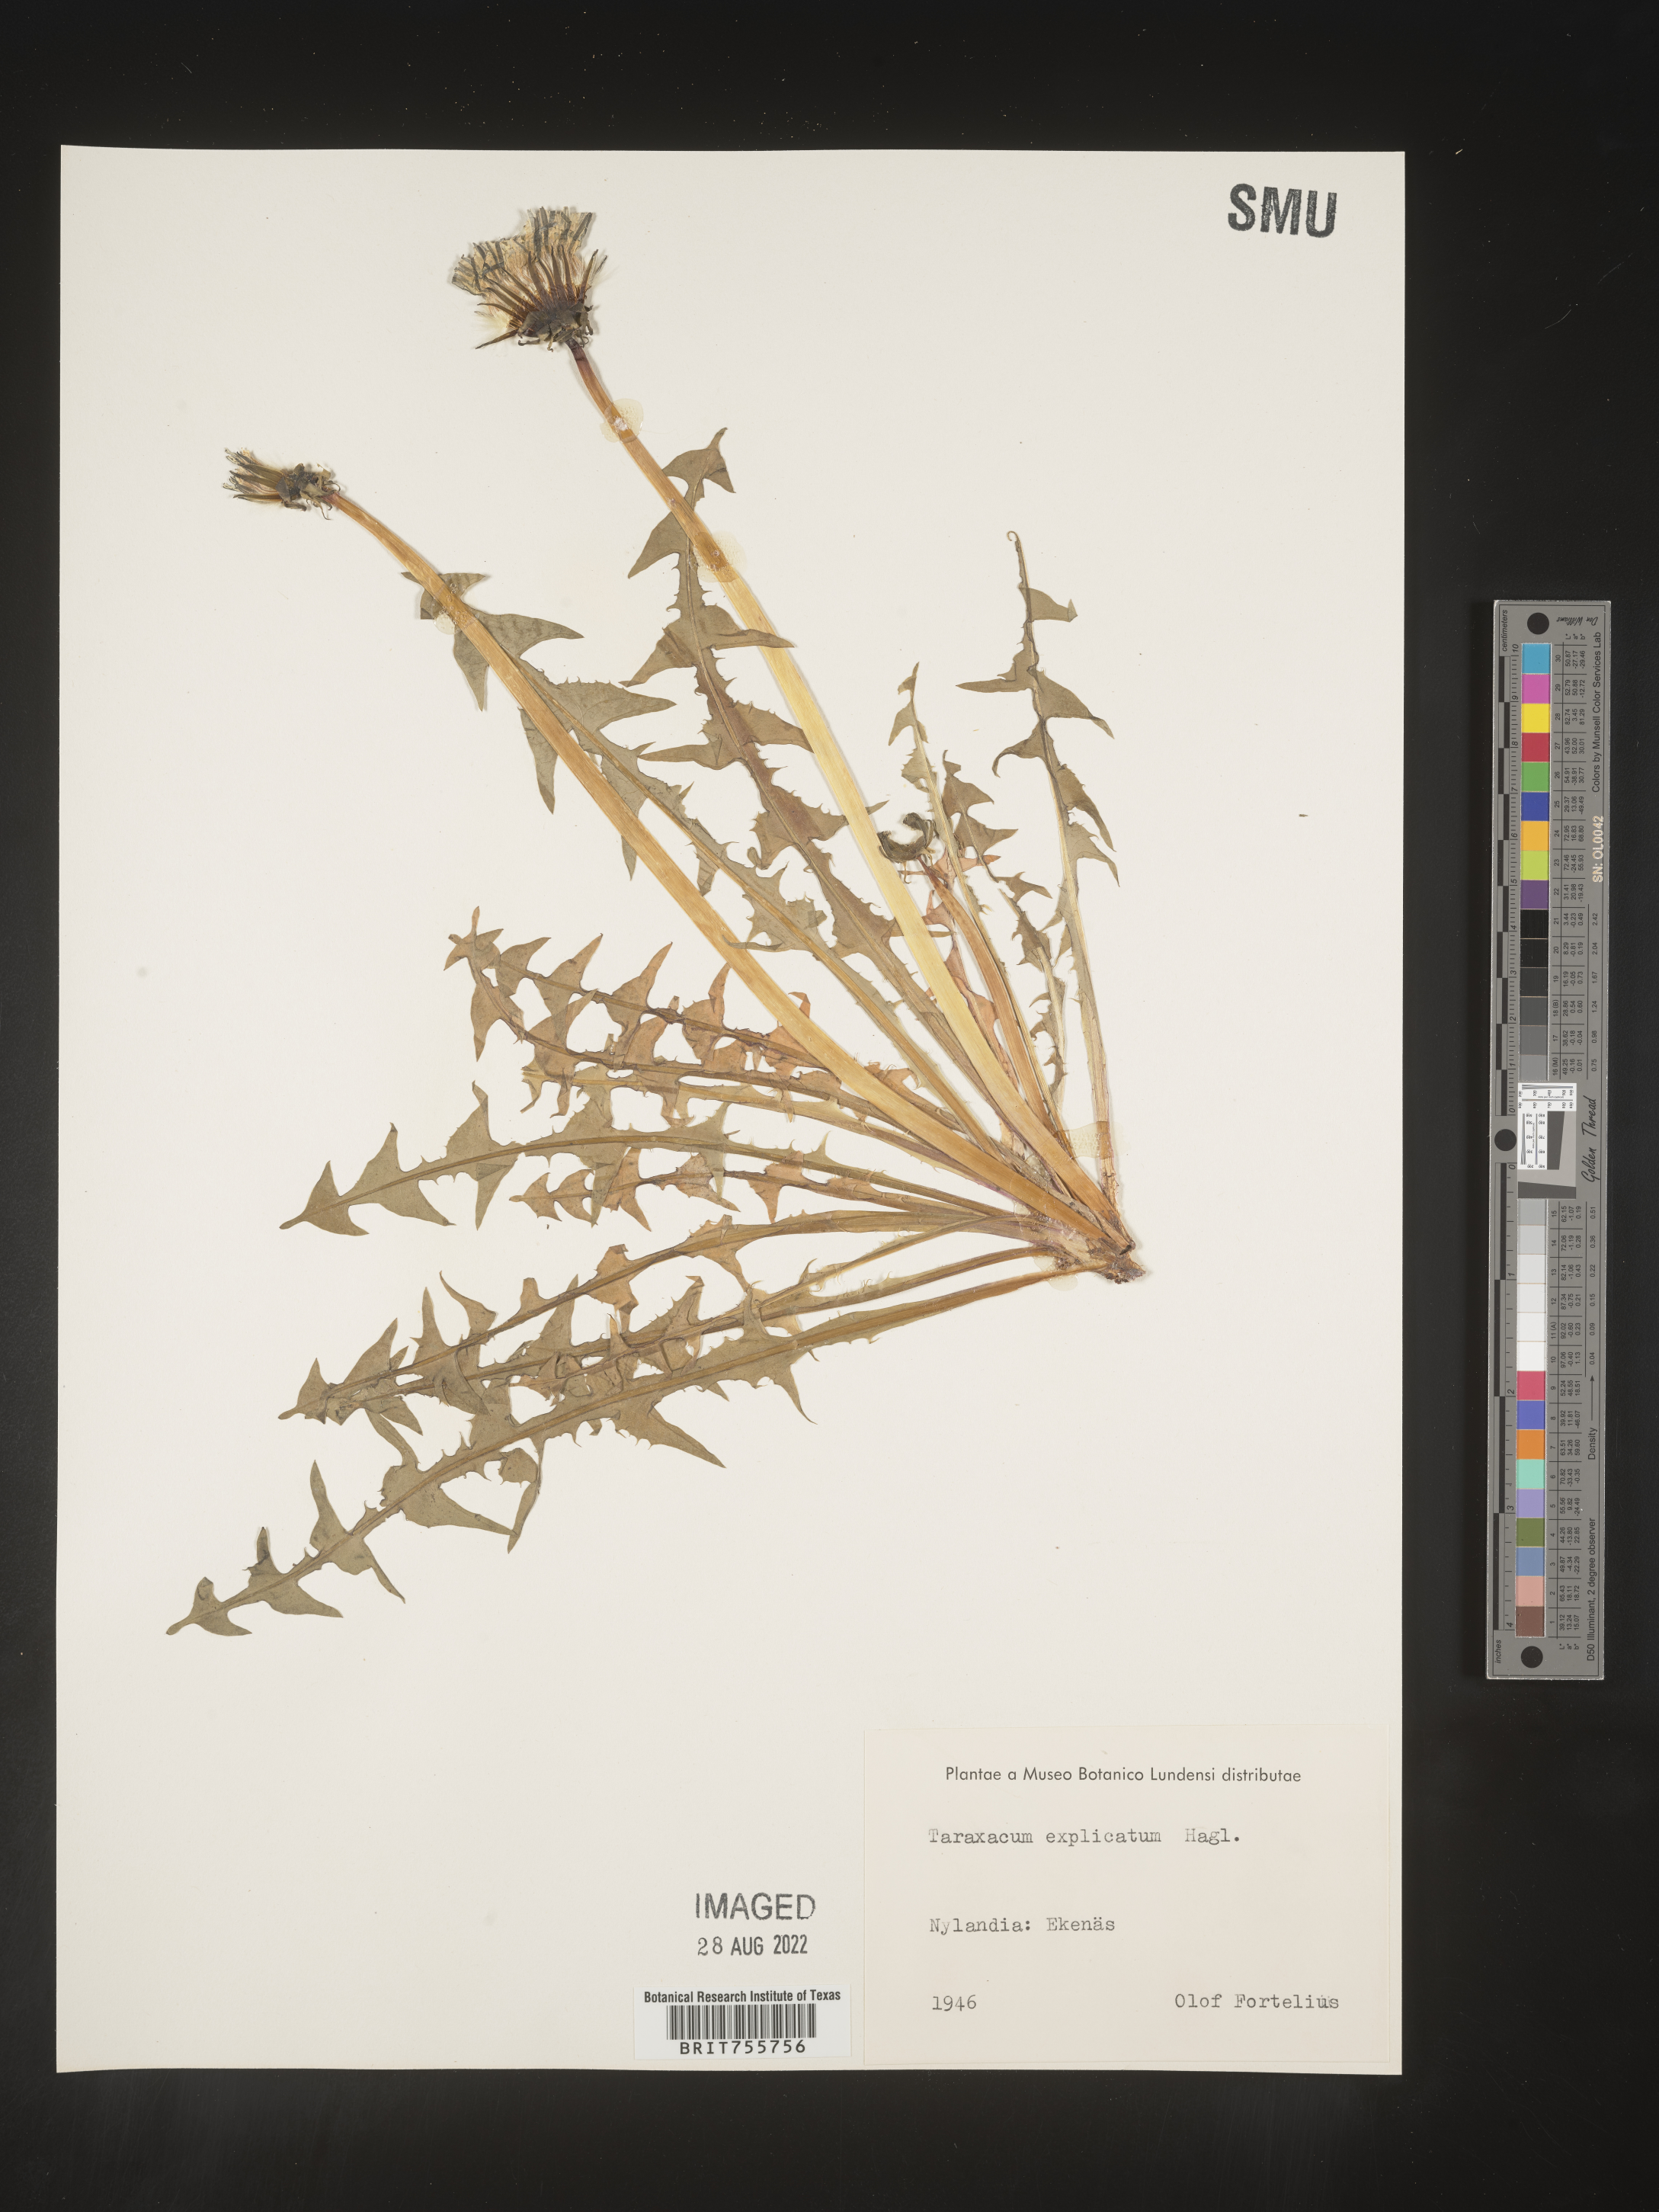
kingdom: Plantae
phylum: Tracheophyta
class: Magnoliopsida
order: Asterales
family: Asteraceae
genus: Taraxacum
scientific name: Taraxacum
